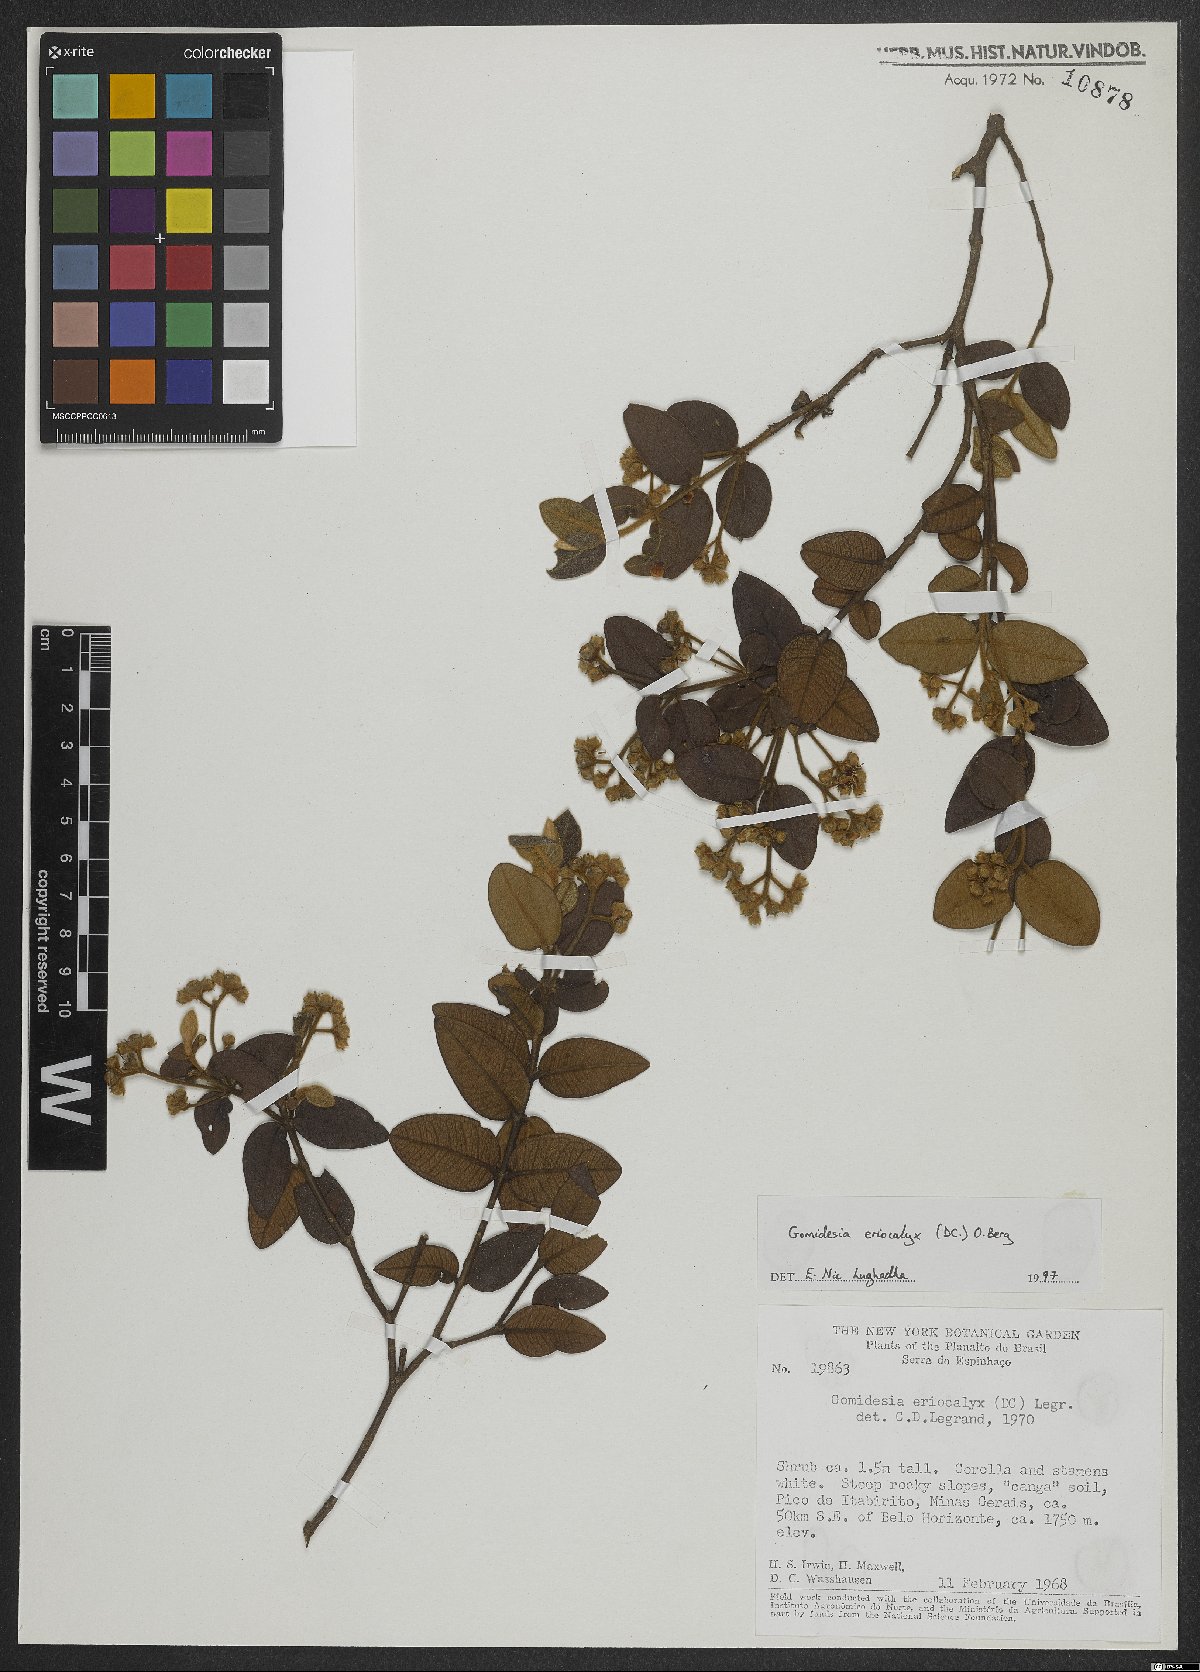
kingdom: Plantae
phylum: Tracheophyta
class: Magnoliopsida
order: Myrtales
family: Myrtaceae
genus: Myrcia
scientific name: Myrcia eriocalyx
